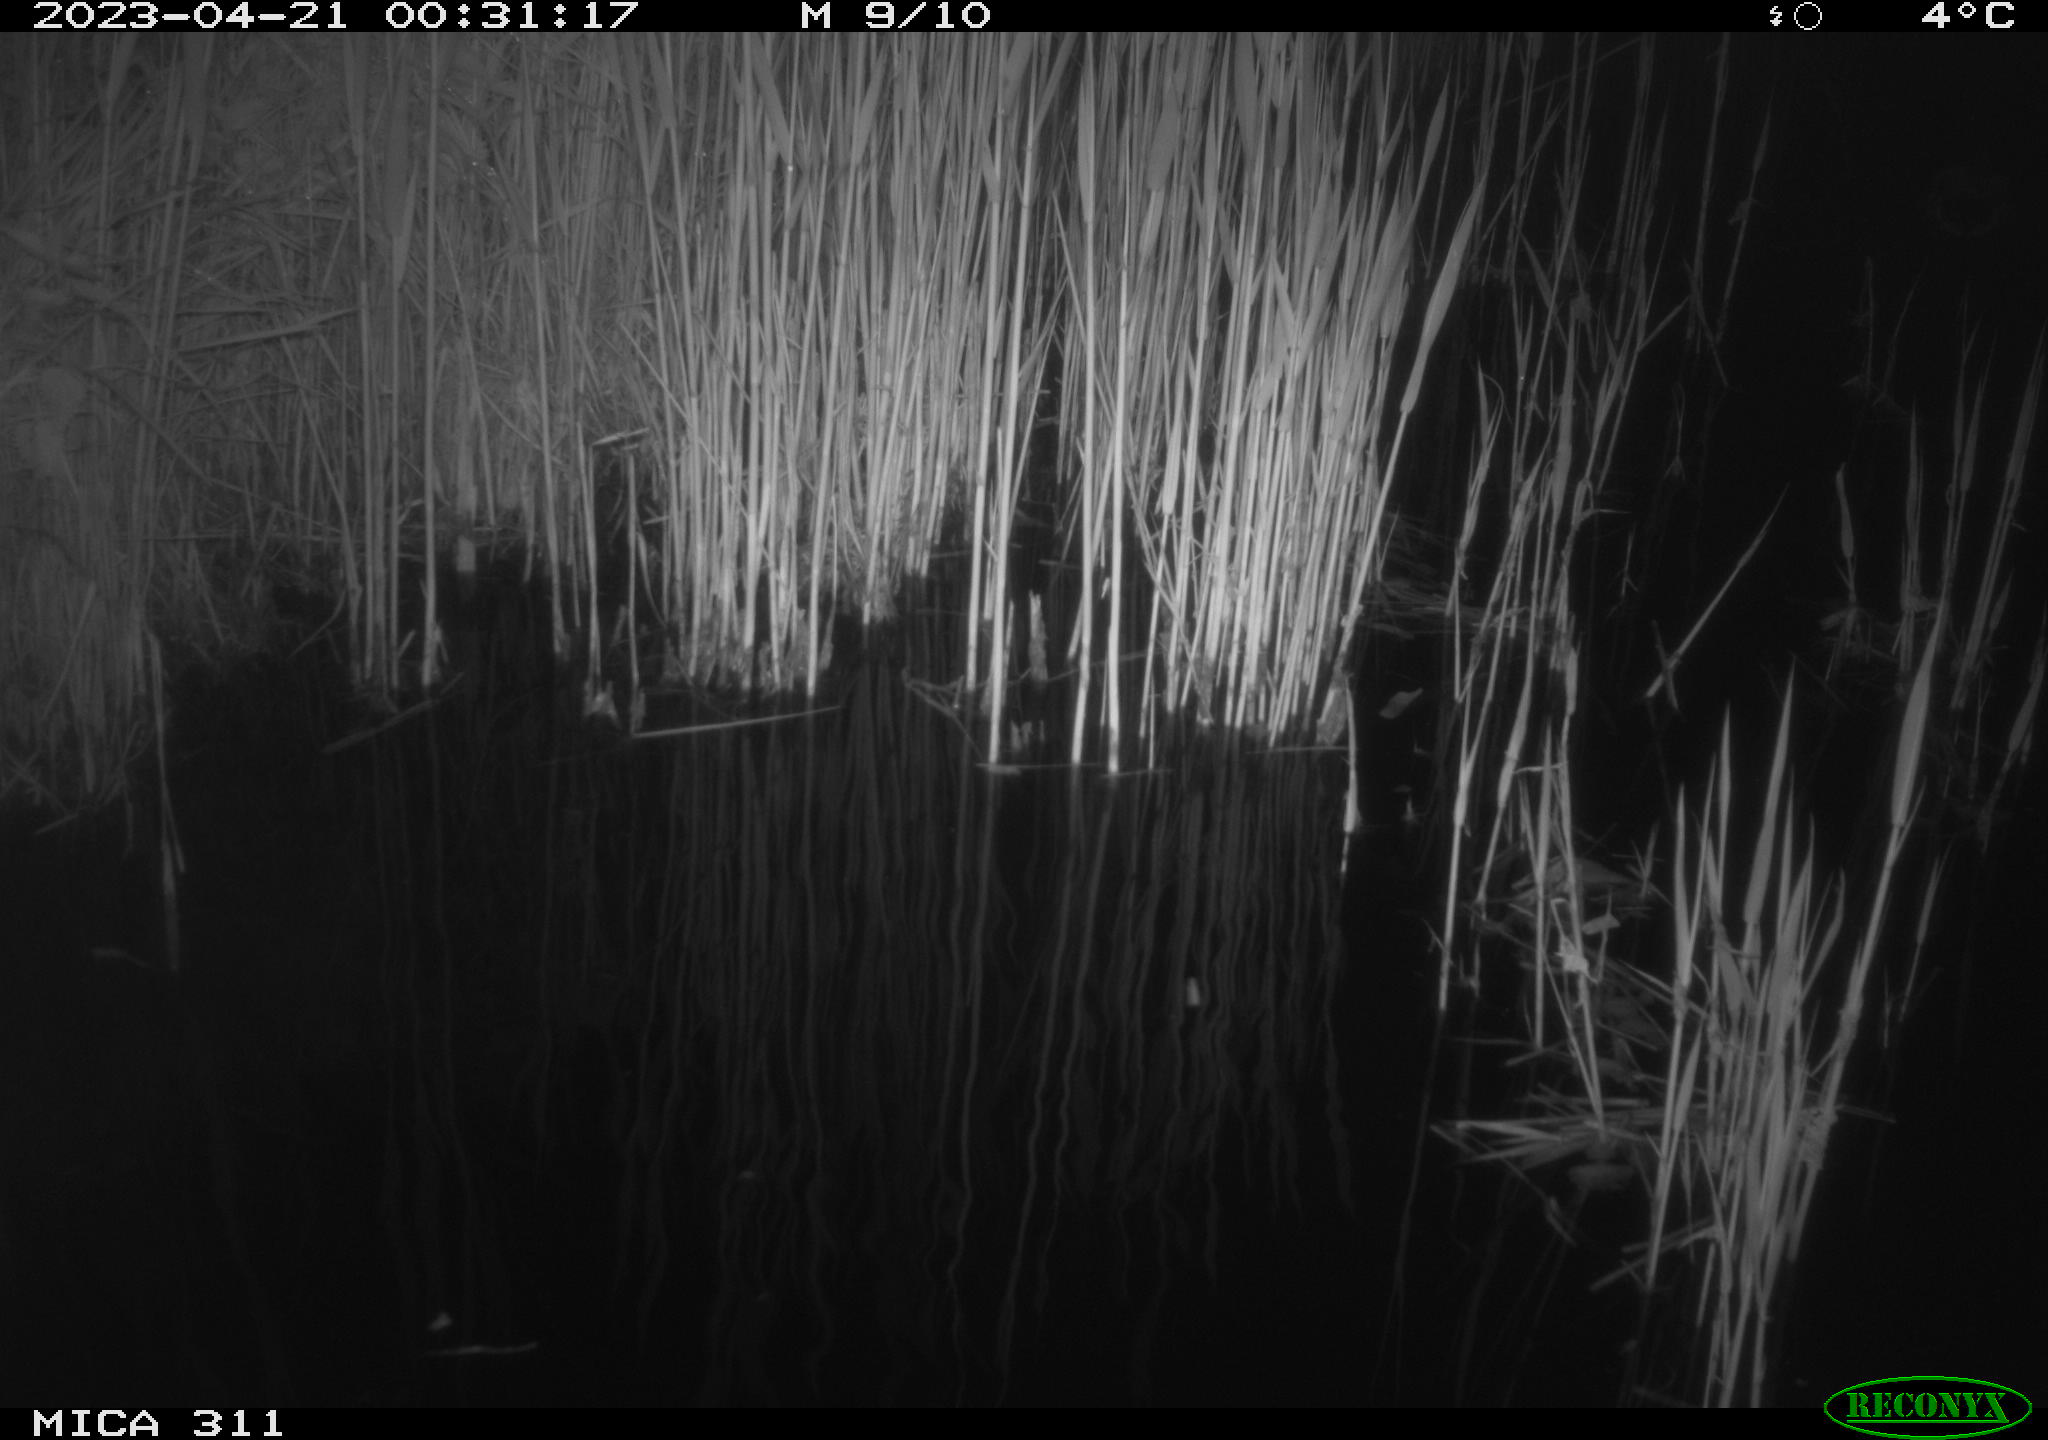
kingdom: Animalia
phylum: Chordata
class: Aves
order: Anseriformes
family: Anatidae
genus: Anas
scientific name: Anas
